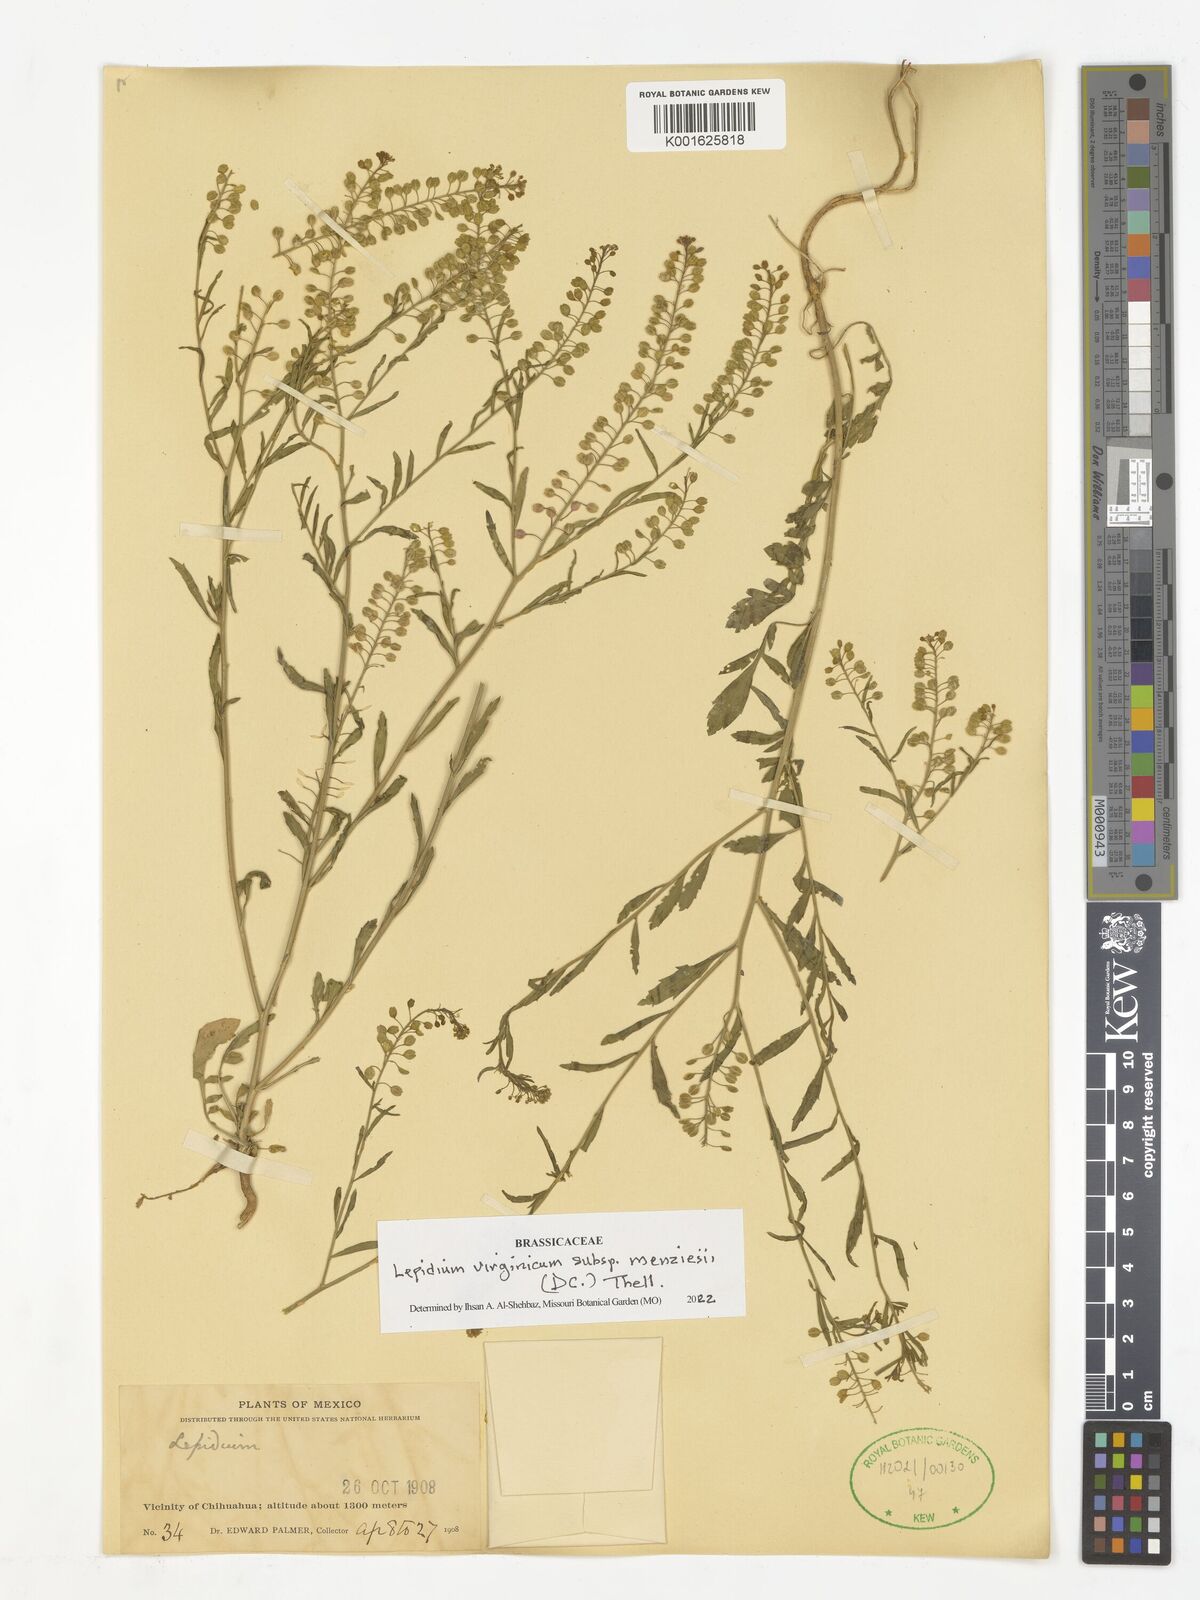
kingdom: Plantae
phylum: Tracheophyta
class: Magnoliopsida
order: Brassicales
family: Brassicaceae
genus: Lepidium
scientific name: Lepidium virginicum
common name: Least pepperwort
